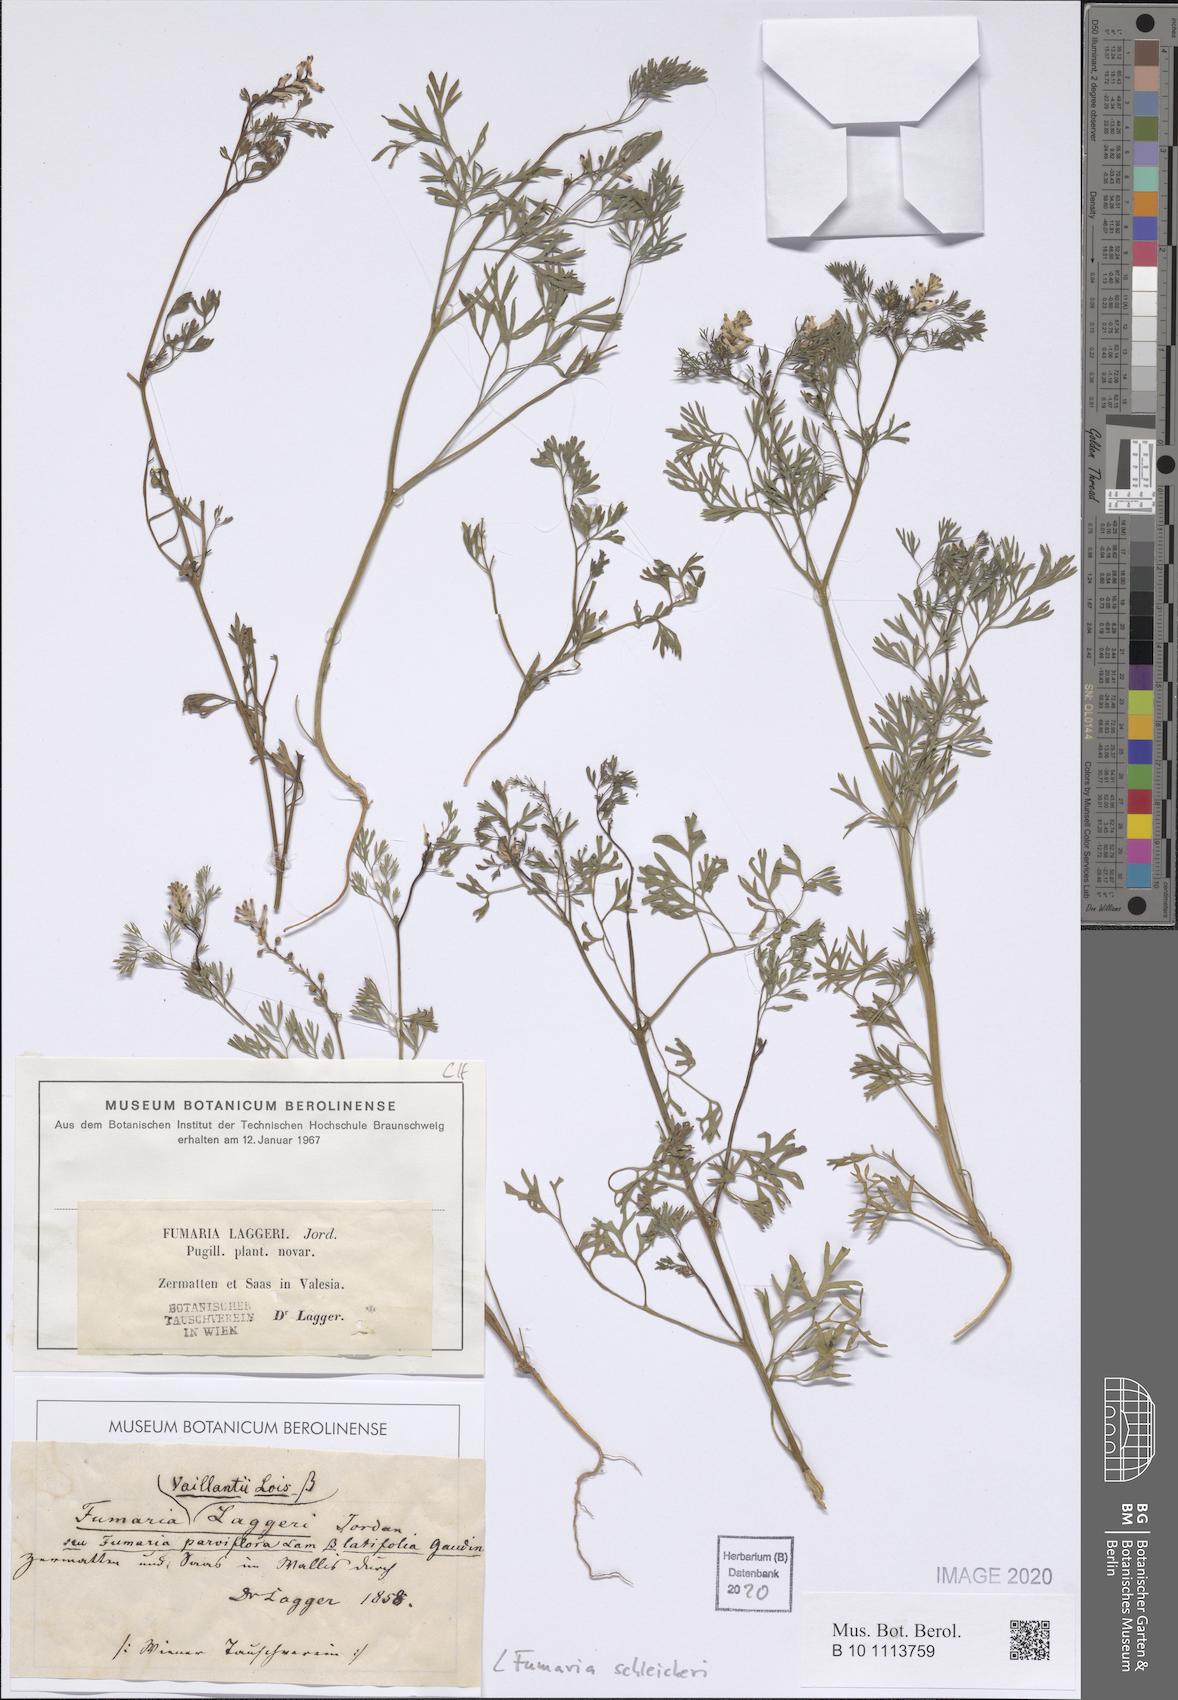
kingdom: Plantae
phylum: Tracheophyta
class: Magnoliopsida
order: Ranunculales
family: Papaveraceae
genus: Fumaria
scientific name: Fumaria schleicheri
